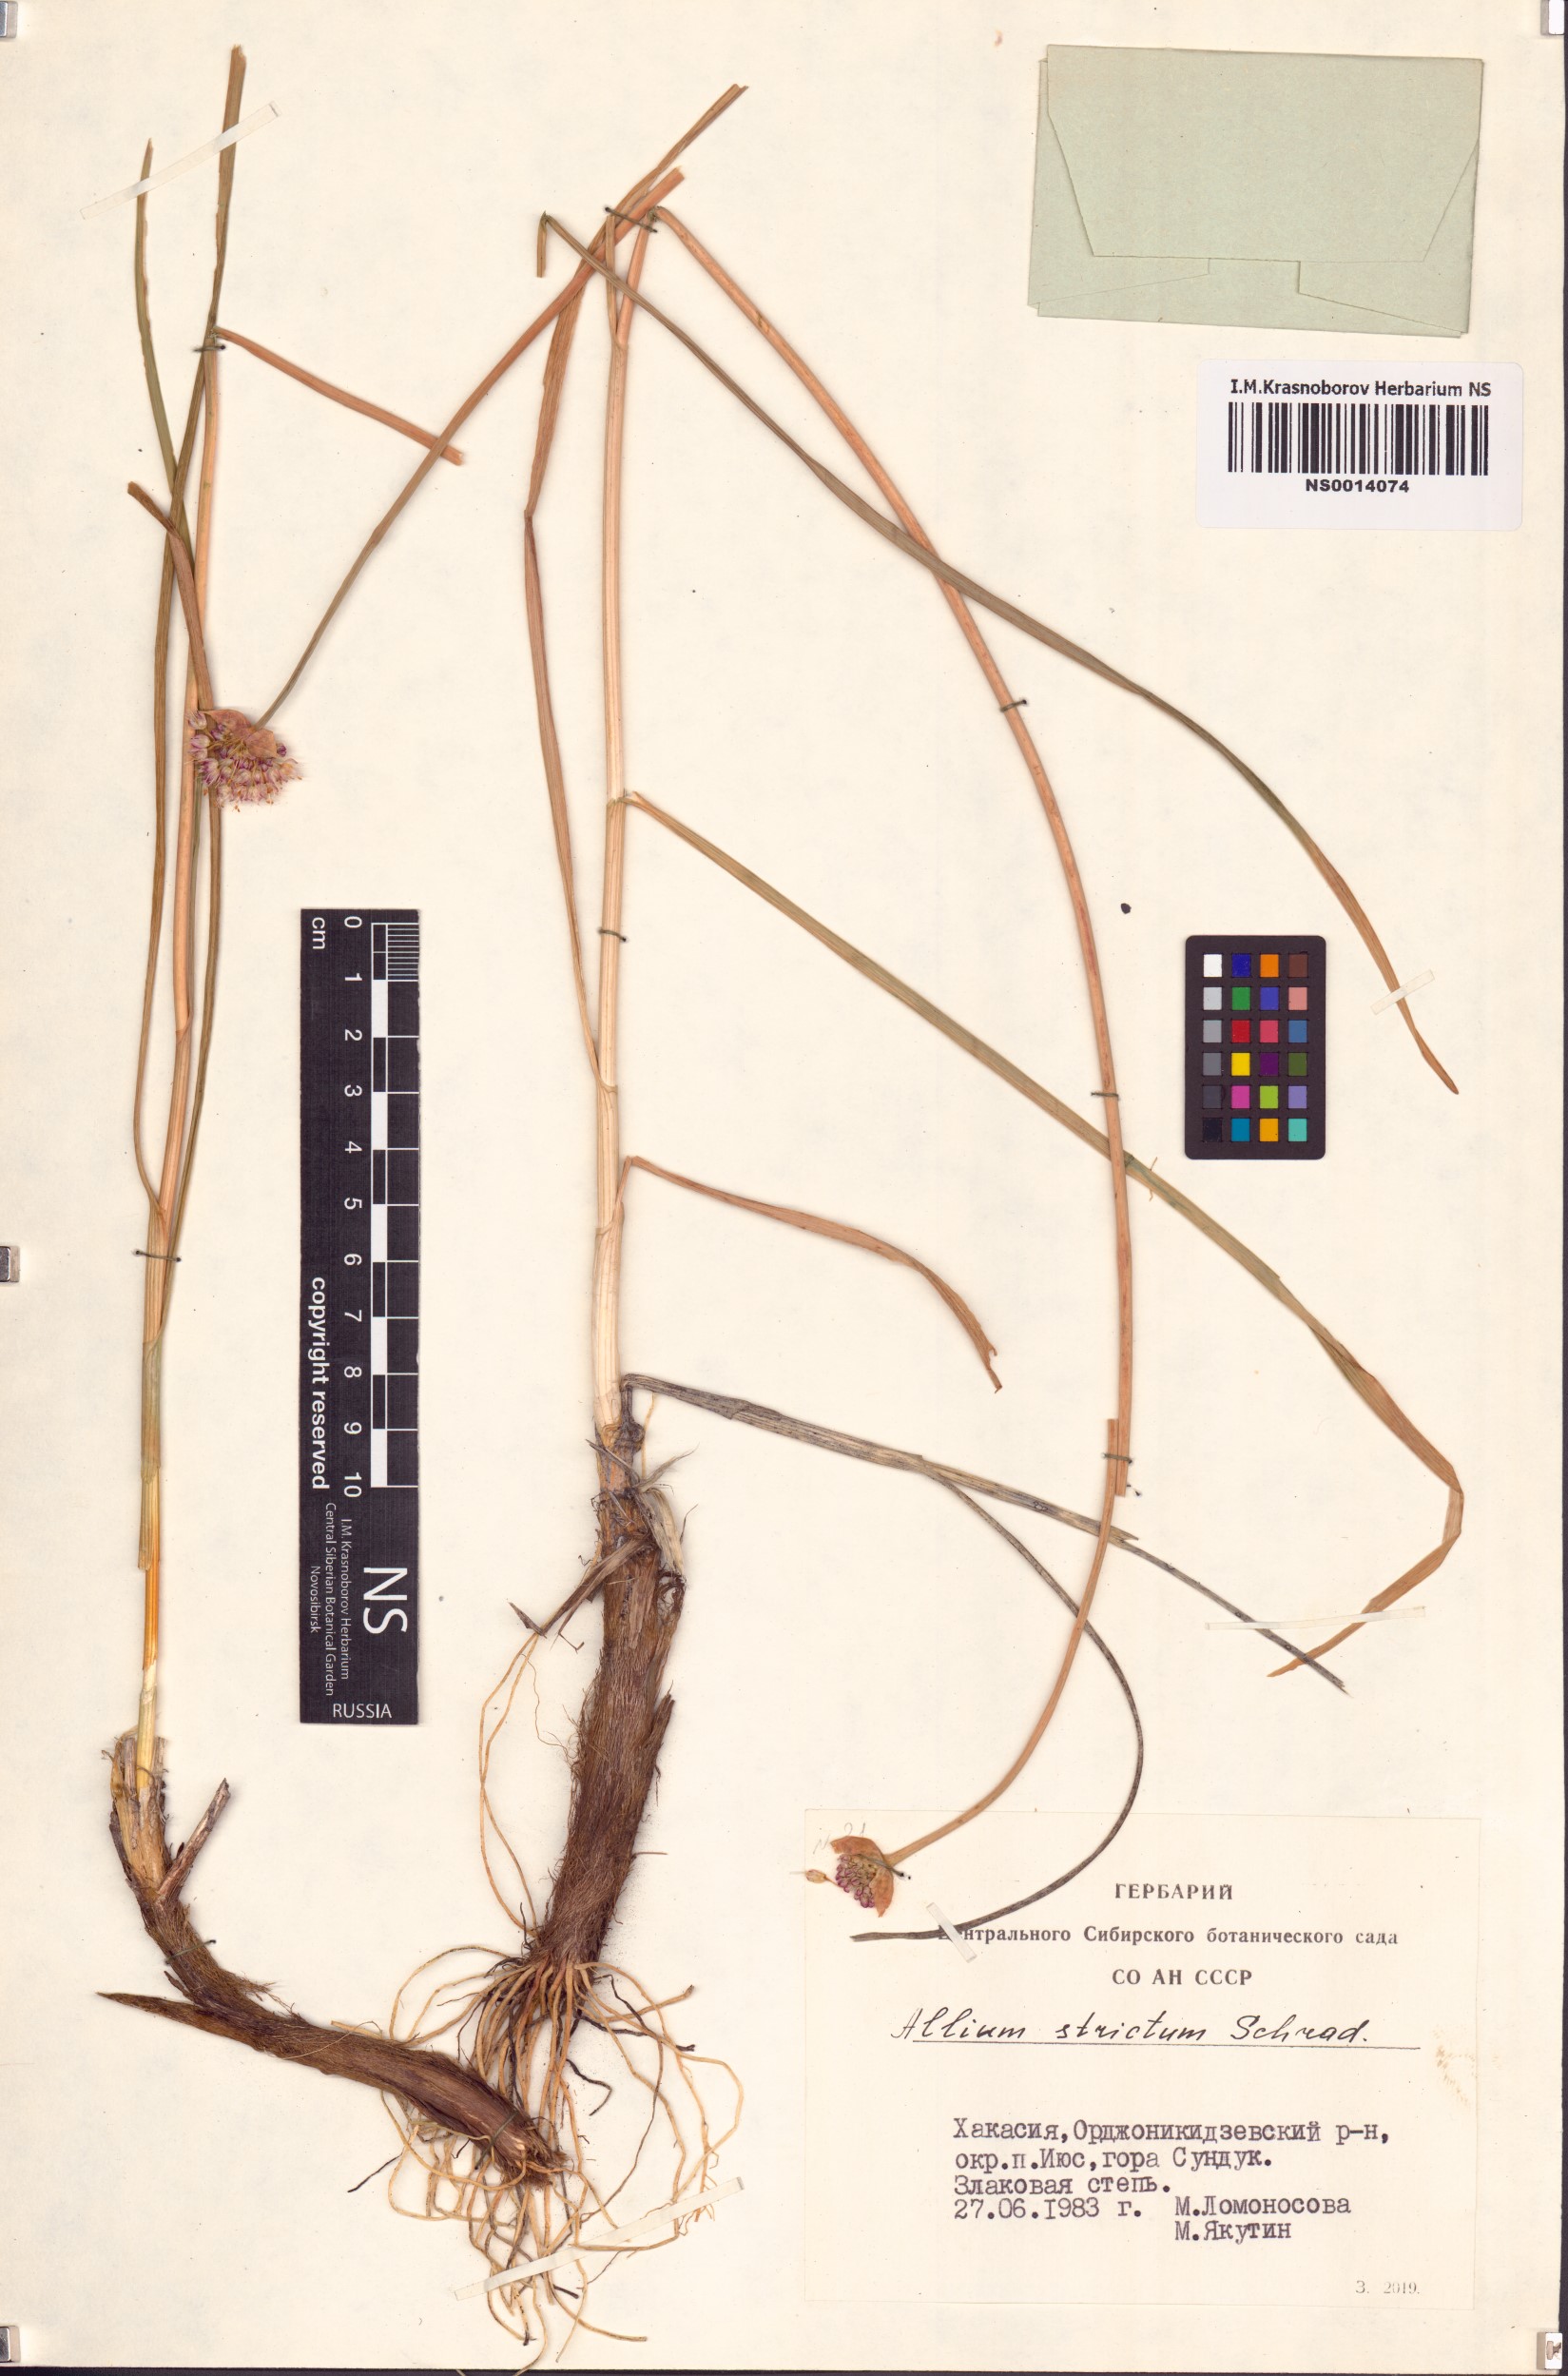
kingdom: Plantae
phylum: Tracheophyta
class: Liliopsida
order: Asparagales
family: Amaryllidaceae
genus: Allium
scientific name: Allium strictum
